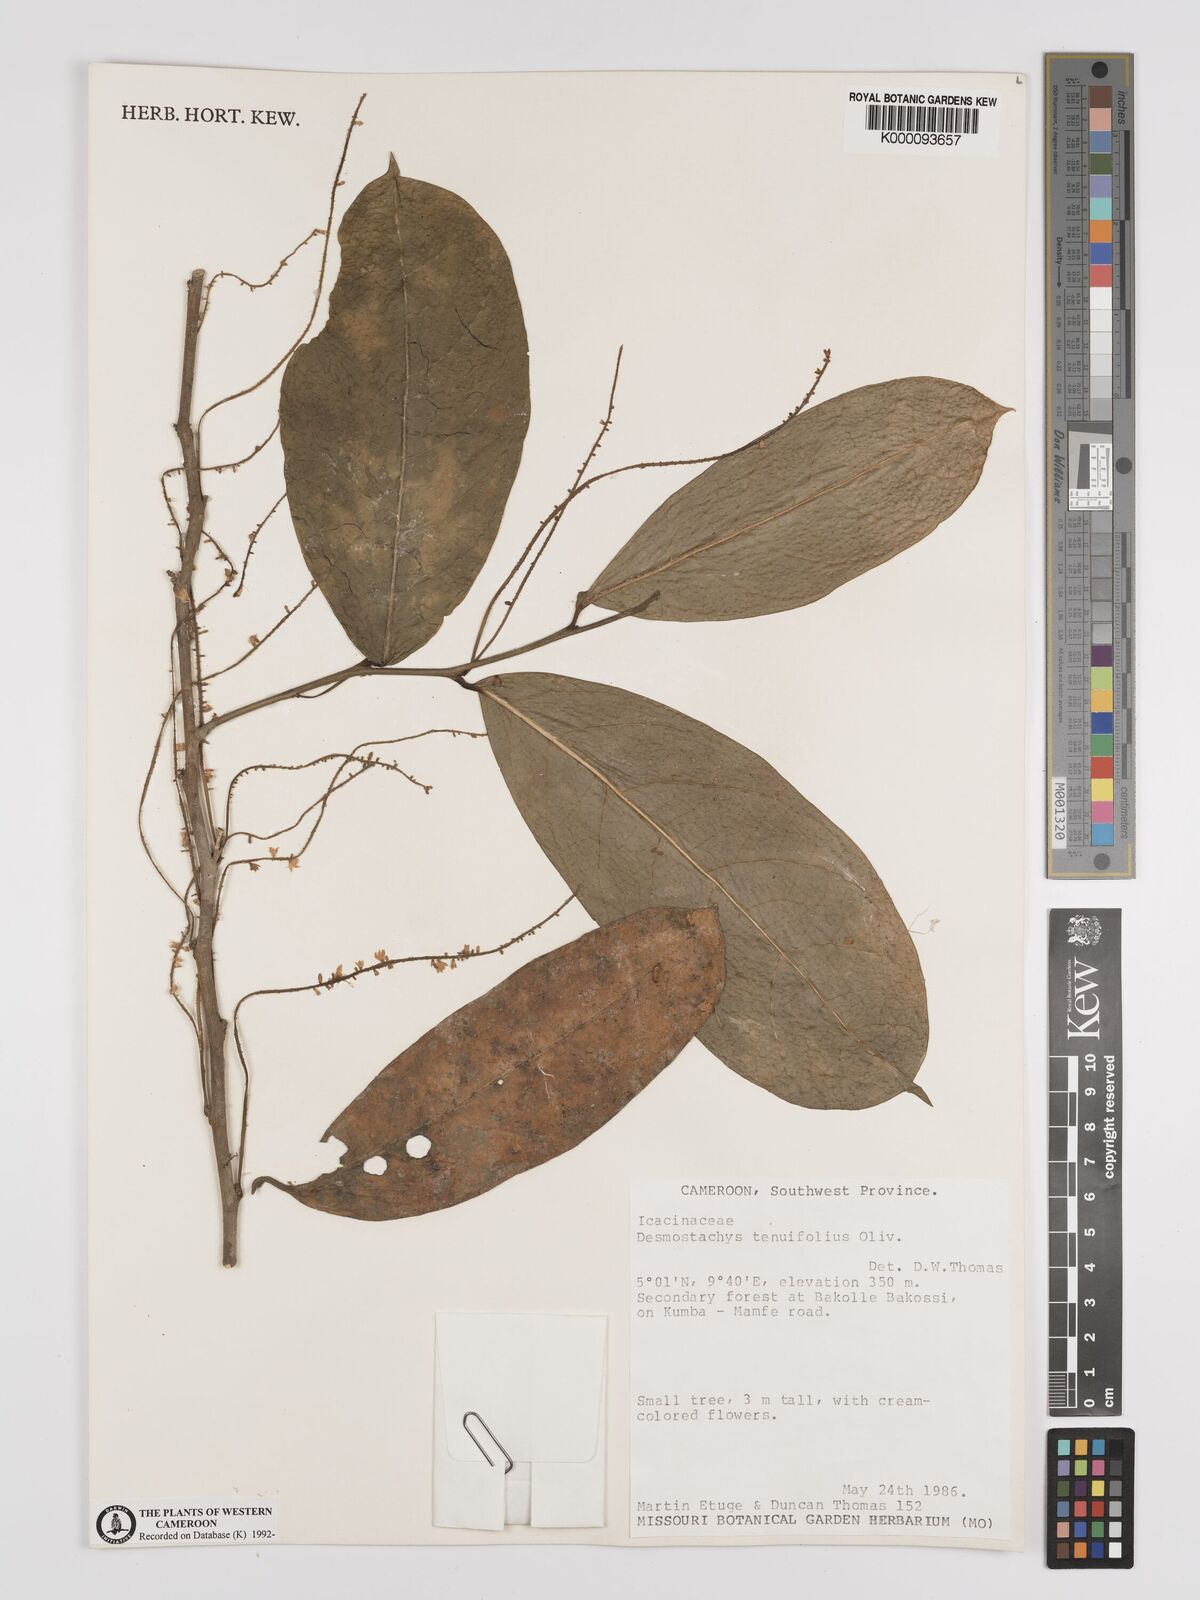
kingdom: Plantae
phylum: Tracheophyta
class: Magnoliopsida
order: Icacinales
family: Icacinaceae
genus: Vadensea
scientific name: Vadensea tenuifolia
